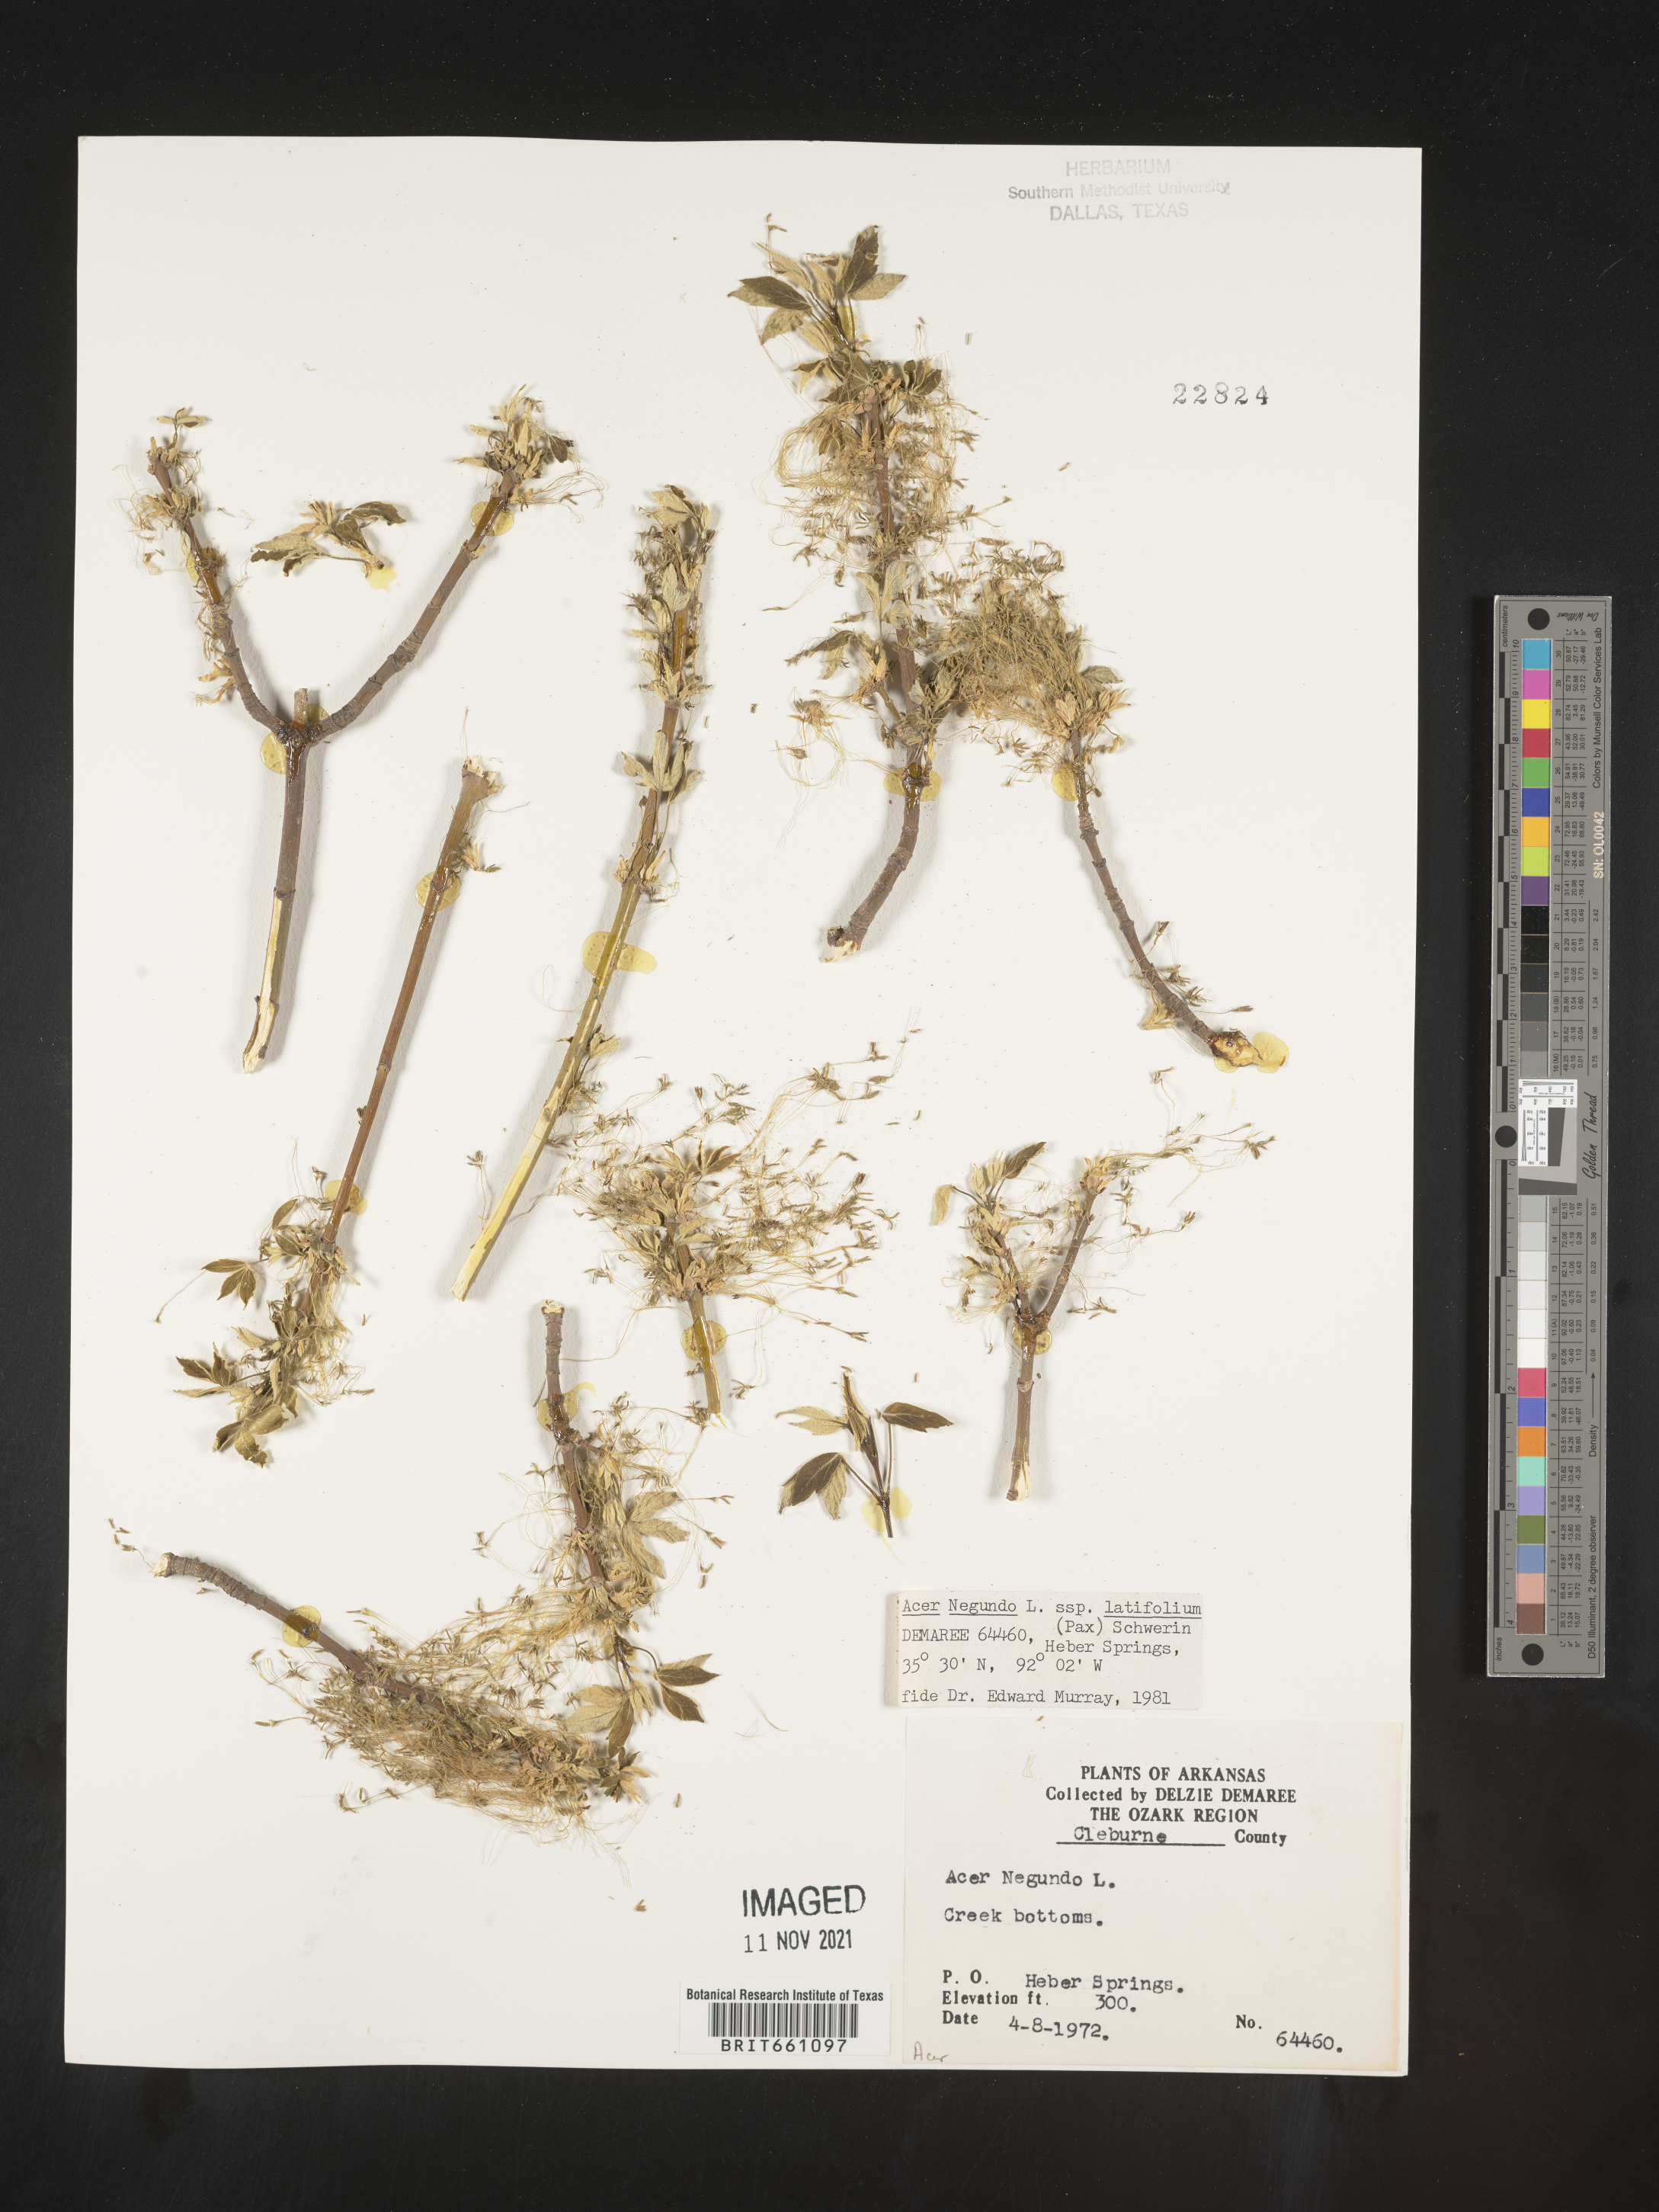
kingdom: Plantae
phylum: Tracheophyta
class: Magnoliopsida
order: Sapindales
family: Sapindaceae
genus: Acer
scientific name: Acer negundo
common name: Ashleaf maple
